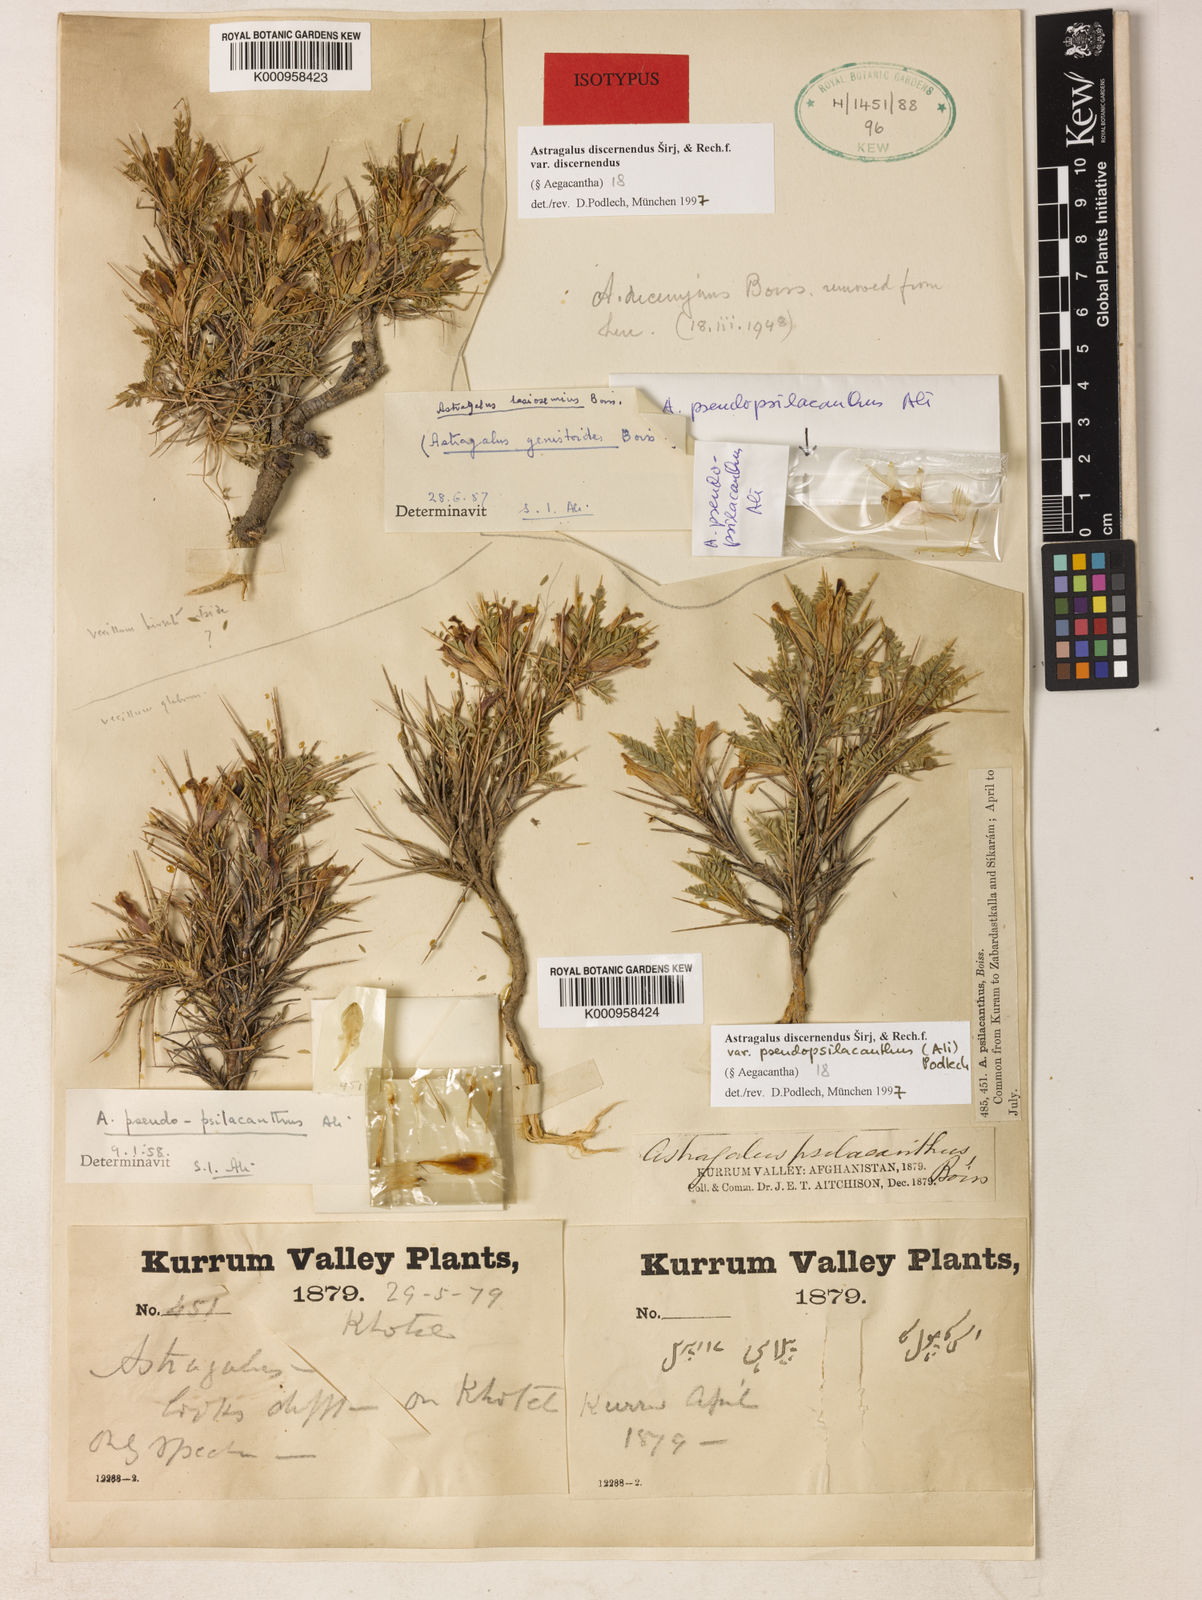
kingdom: Plantae
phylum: Tracheophyta
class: Magnoliopsida
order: Fabales
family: Fabaceae
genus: Astragalus
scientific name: Astragalus
